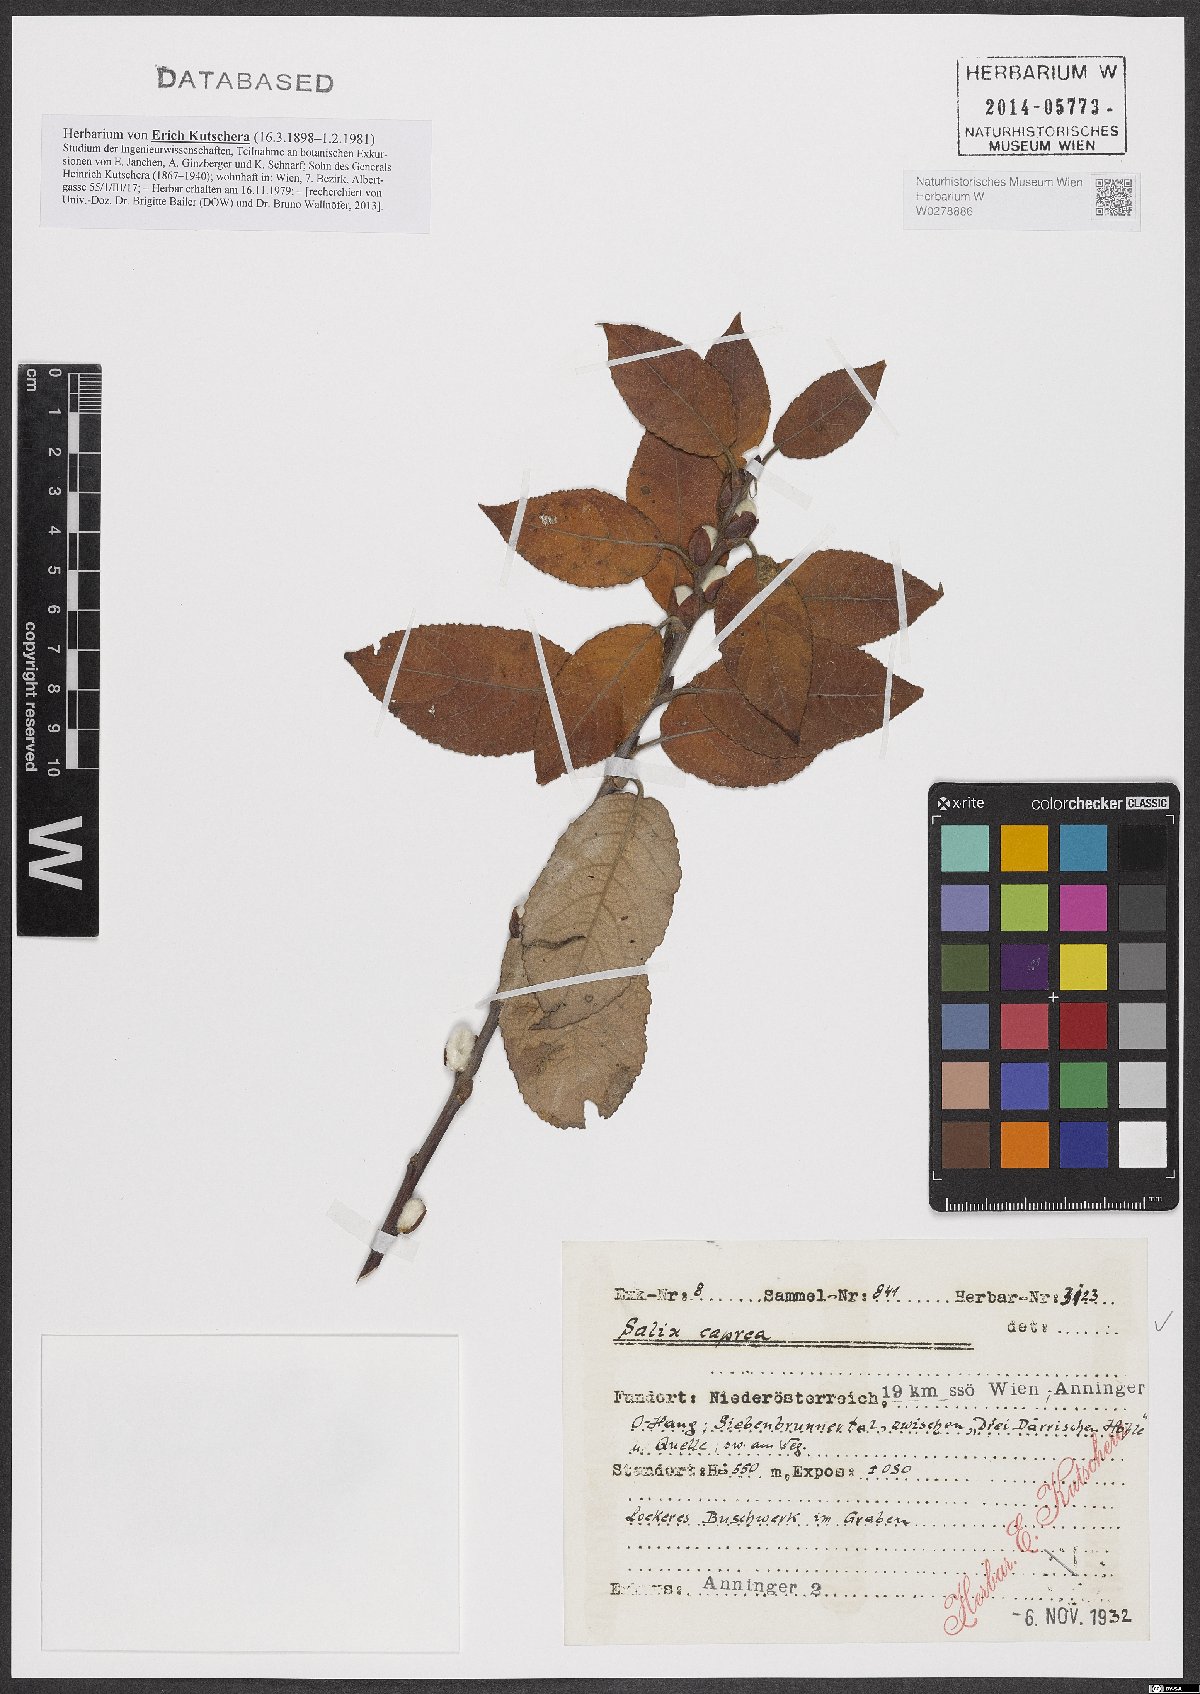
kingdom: Plantae
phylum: Tracheophyta
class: Magnoliopsida
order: Malpighiales
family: Salicaceae
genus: Salix
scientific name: Salix caprea
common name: Goat willow
